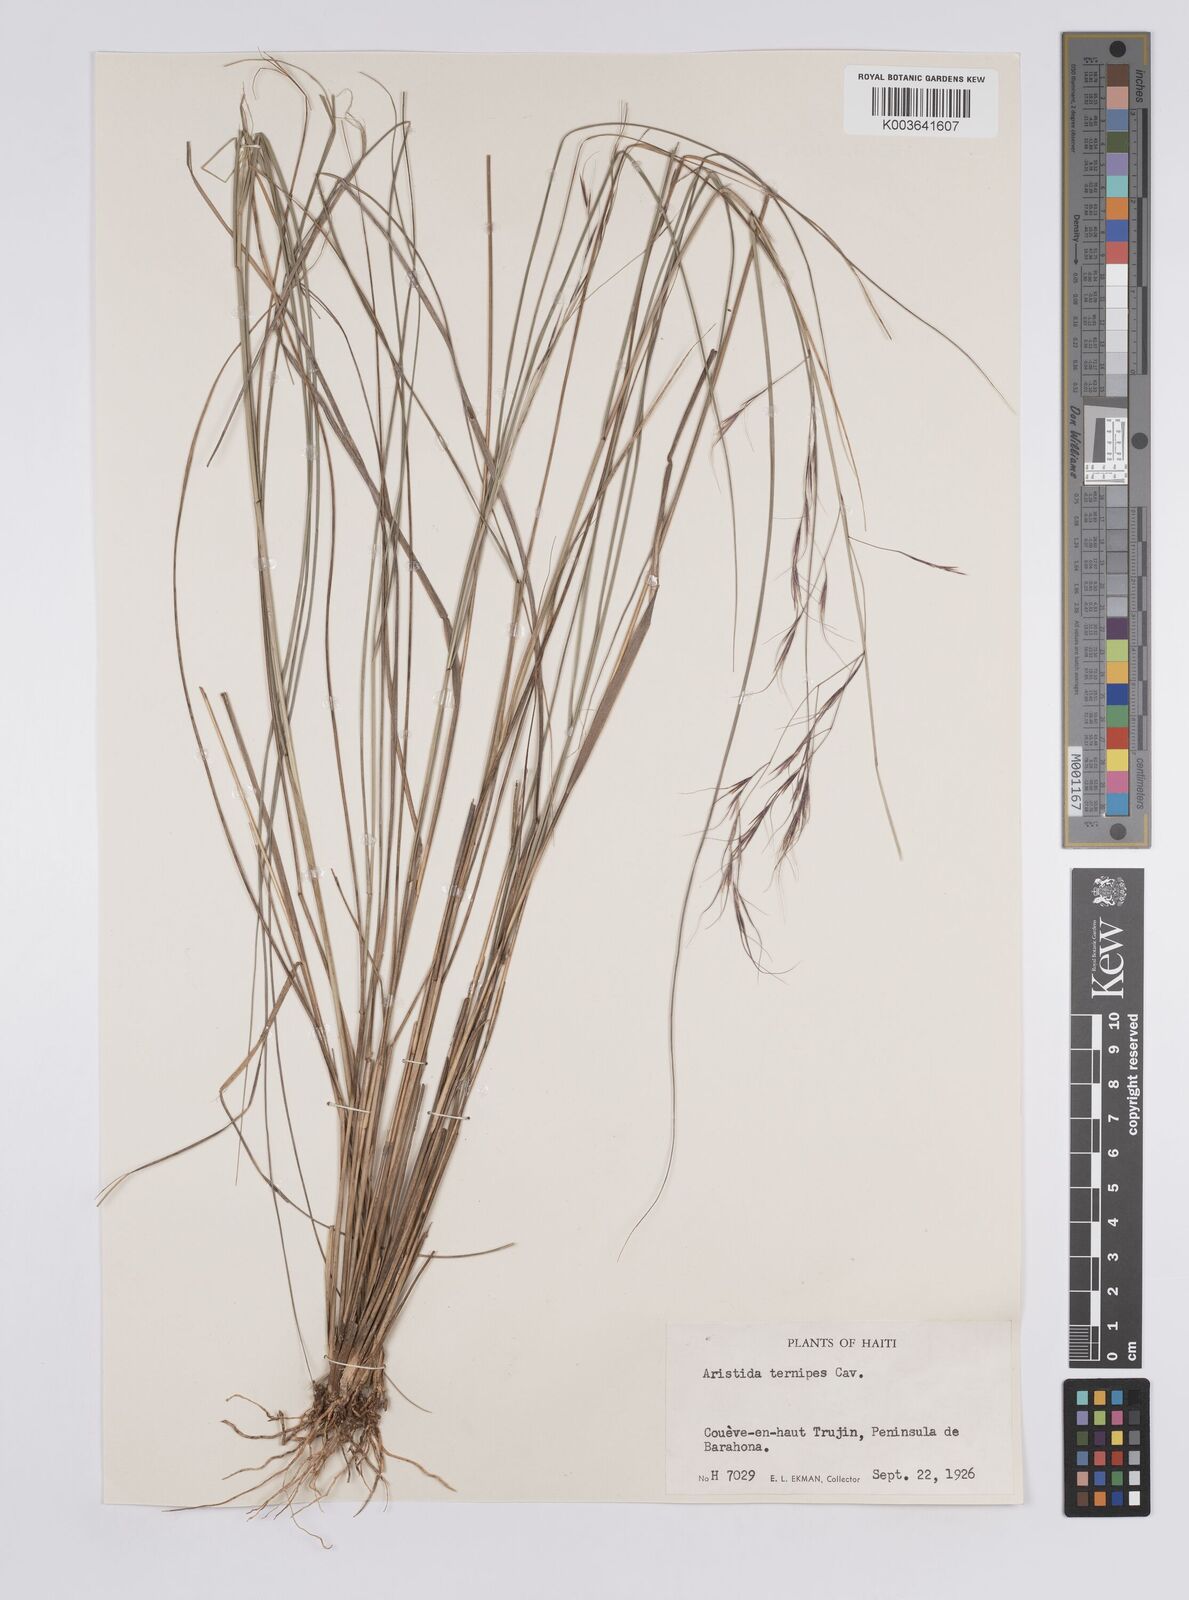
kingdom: Plantae
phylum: Tracheophyta
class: Liliopsida
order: Poales
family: Poaceae
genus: Aristida
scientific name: Aristida ternipes
